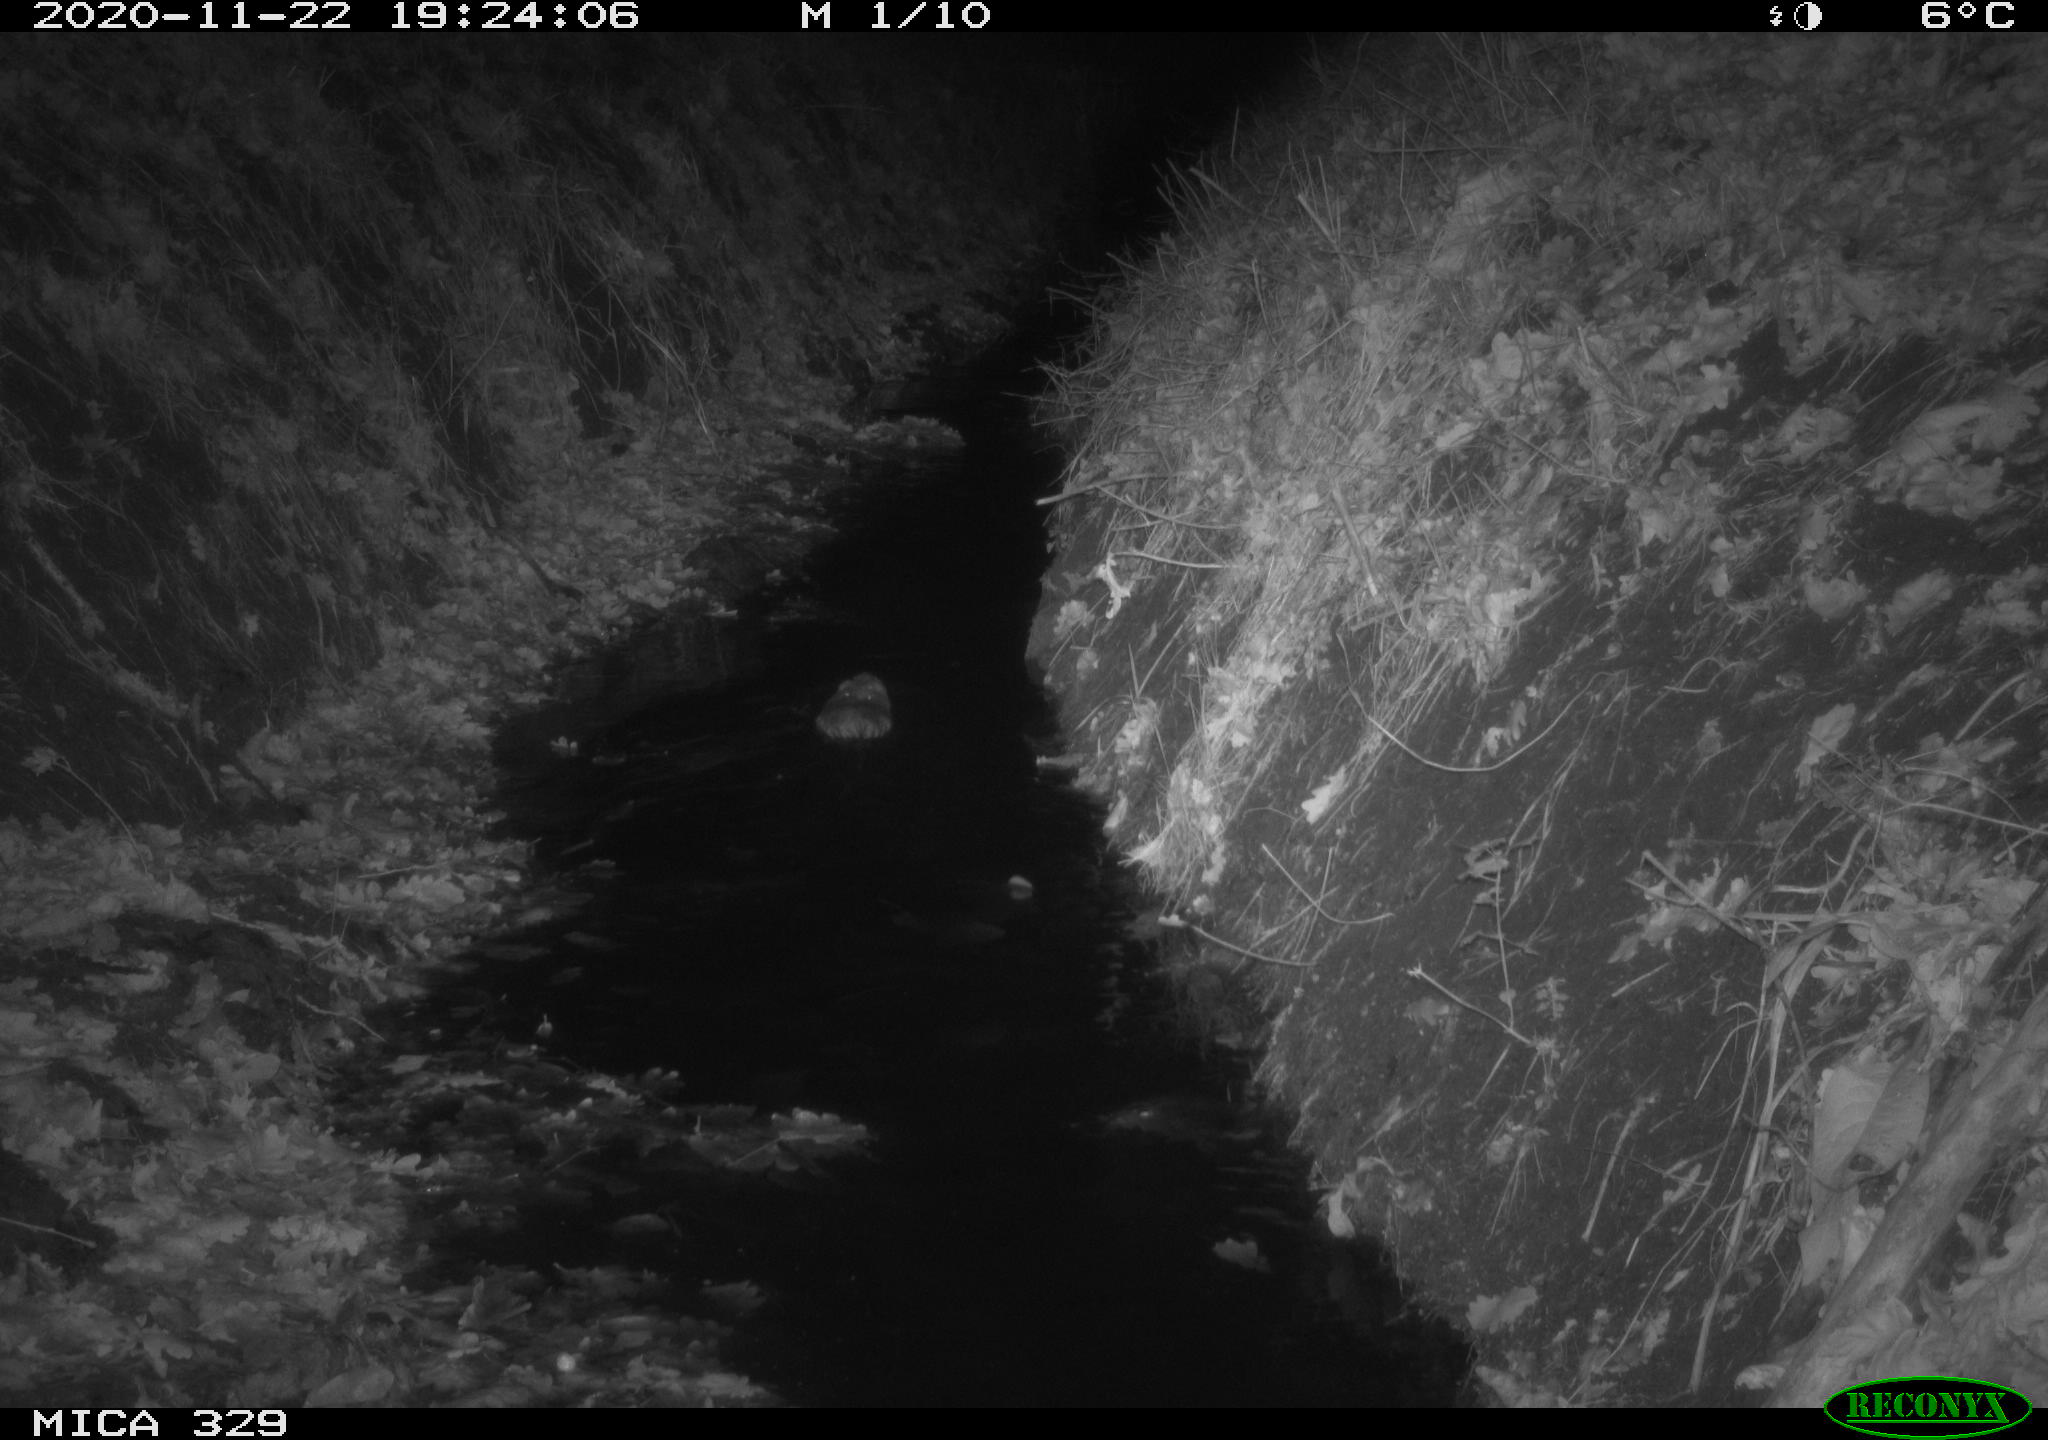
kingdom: Animalia
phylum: Chordata
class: Mammalia
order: Rodentia
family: Myocastoridae
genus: Myocastor
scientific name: Myocastor coypus
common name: Coypu
